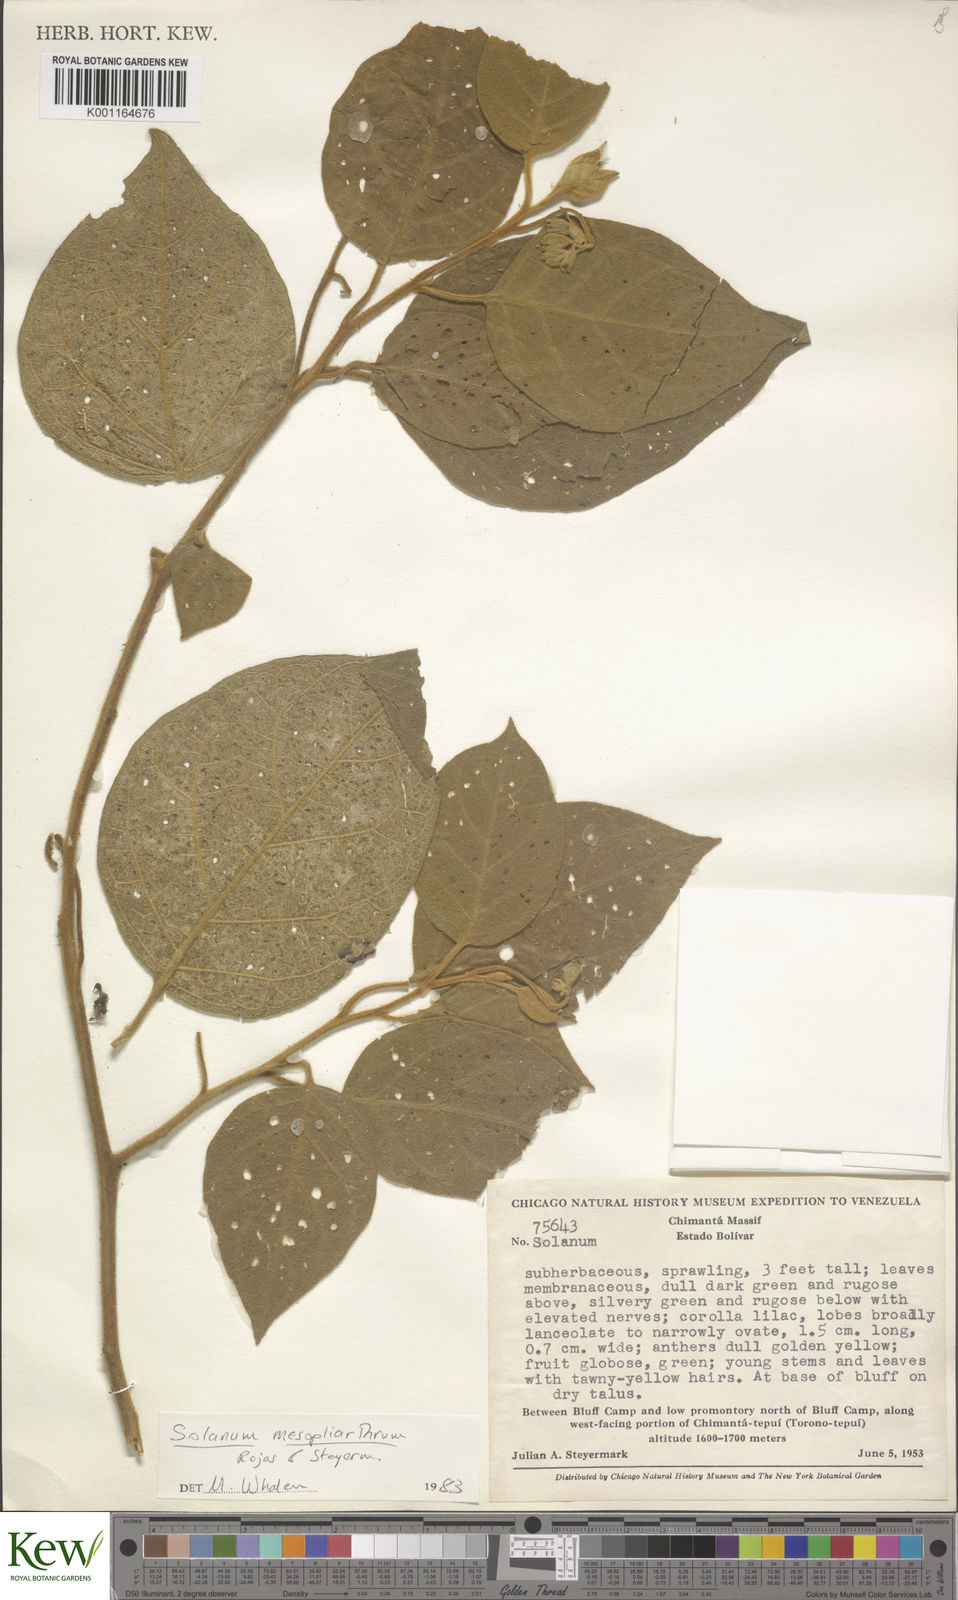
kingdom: Plantae
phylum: Tracheophyta
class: Magnoliopsida
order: Solanales
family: Solanaceae
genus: Solanum
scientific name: Solanum velutinum
